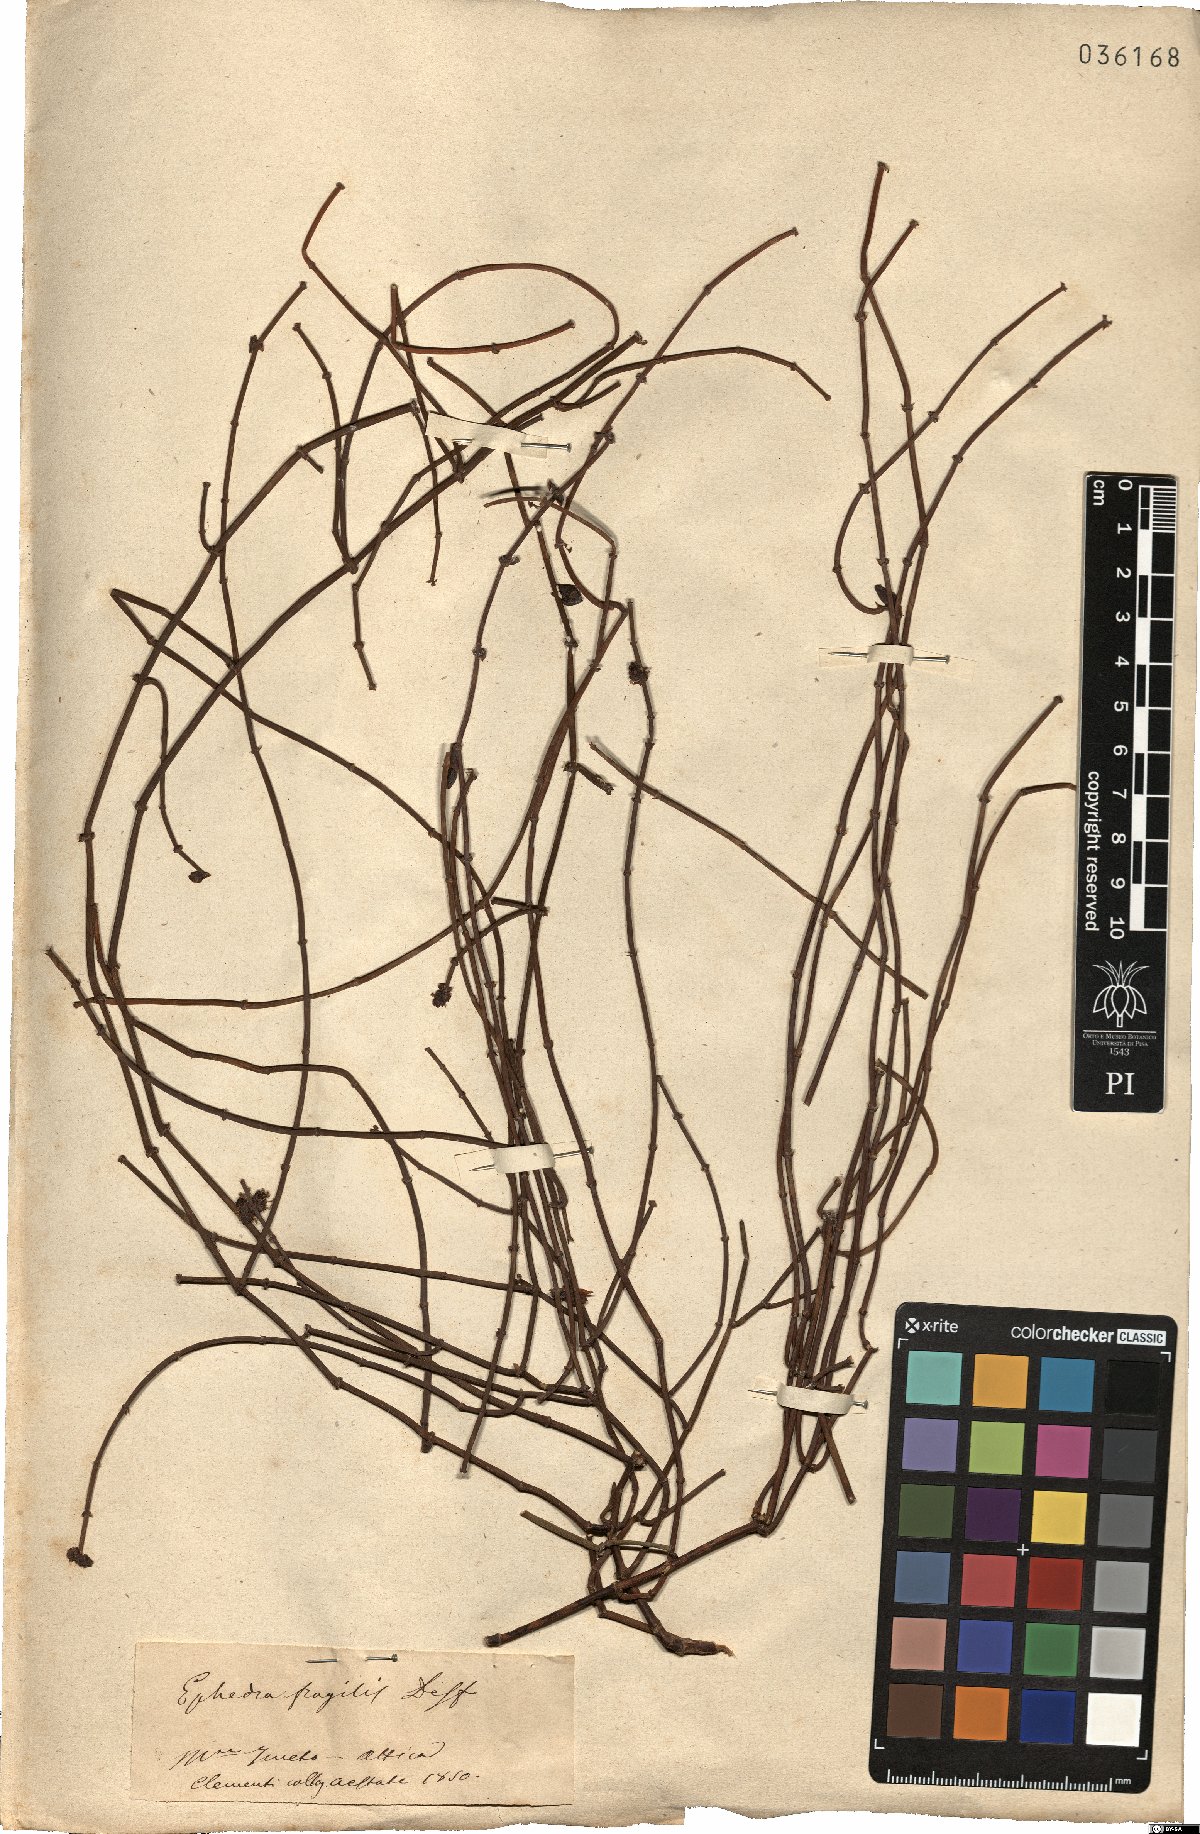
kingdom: Plantae
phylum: Tracheophyta
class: Gnetopsida
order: Ephedrales
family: Ephedraceae
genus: Ephedra
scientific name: Ephedra fragilis
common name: Joint pine
